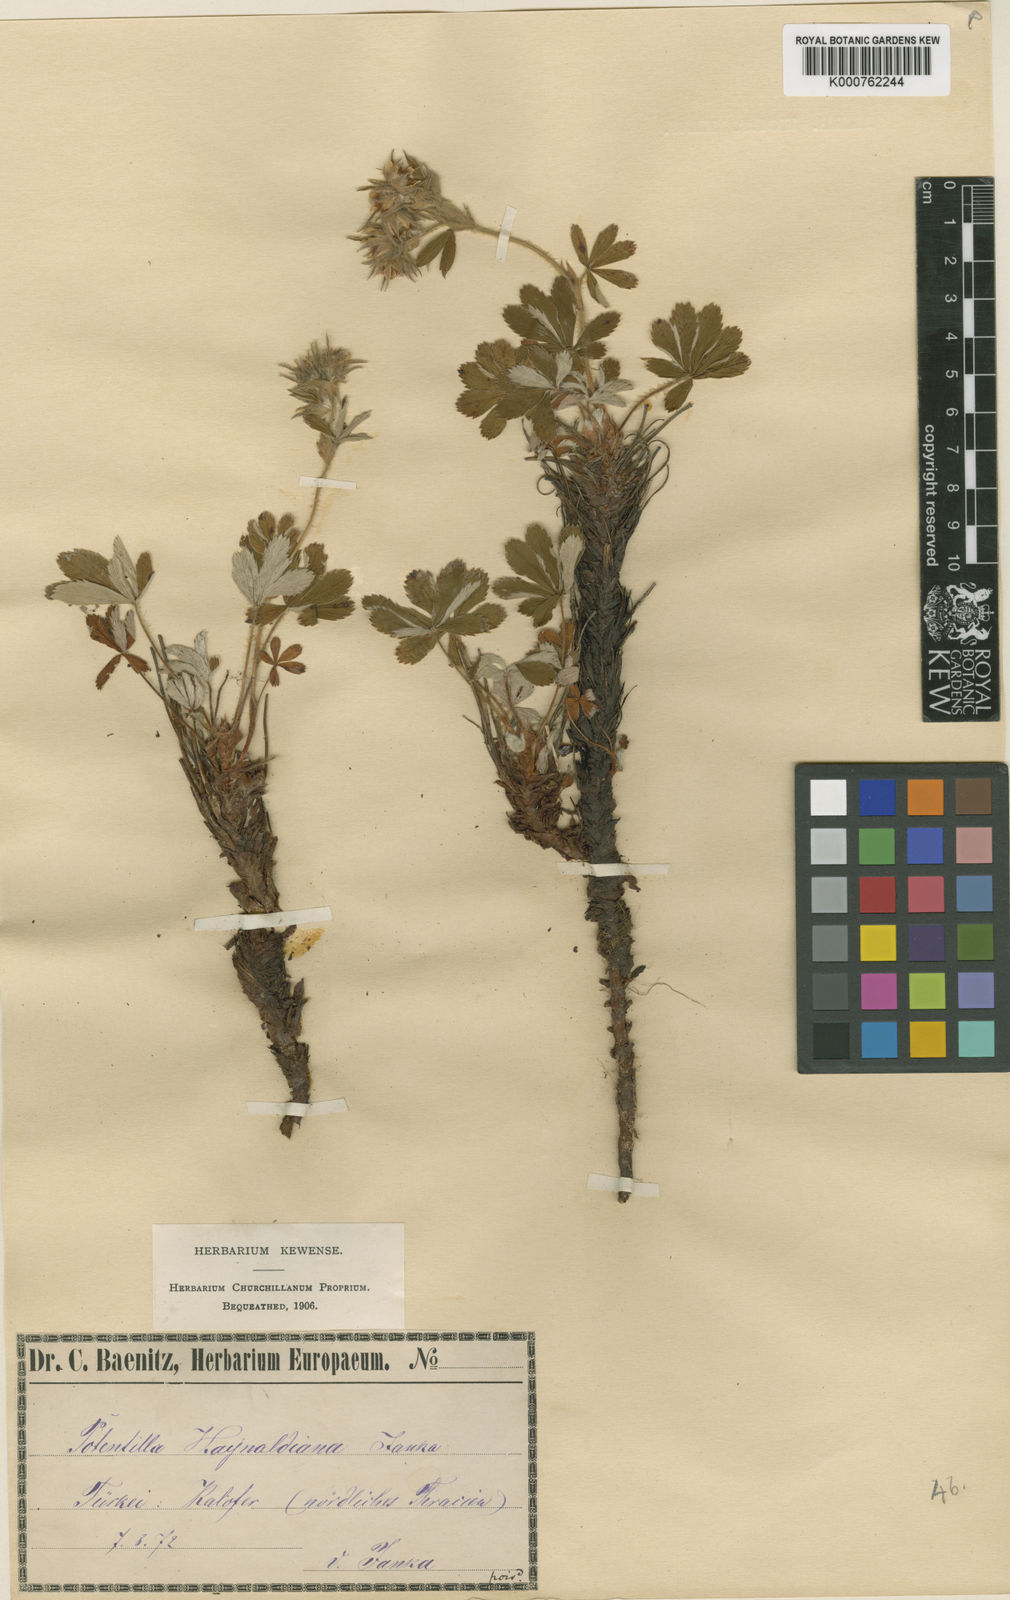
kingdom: Plantae
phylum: Tracheophyta
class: Magnoliopsida
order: Rosales
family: Rosaceae
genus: Potentilla
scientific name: Potentilla haynaldiana
